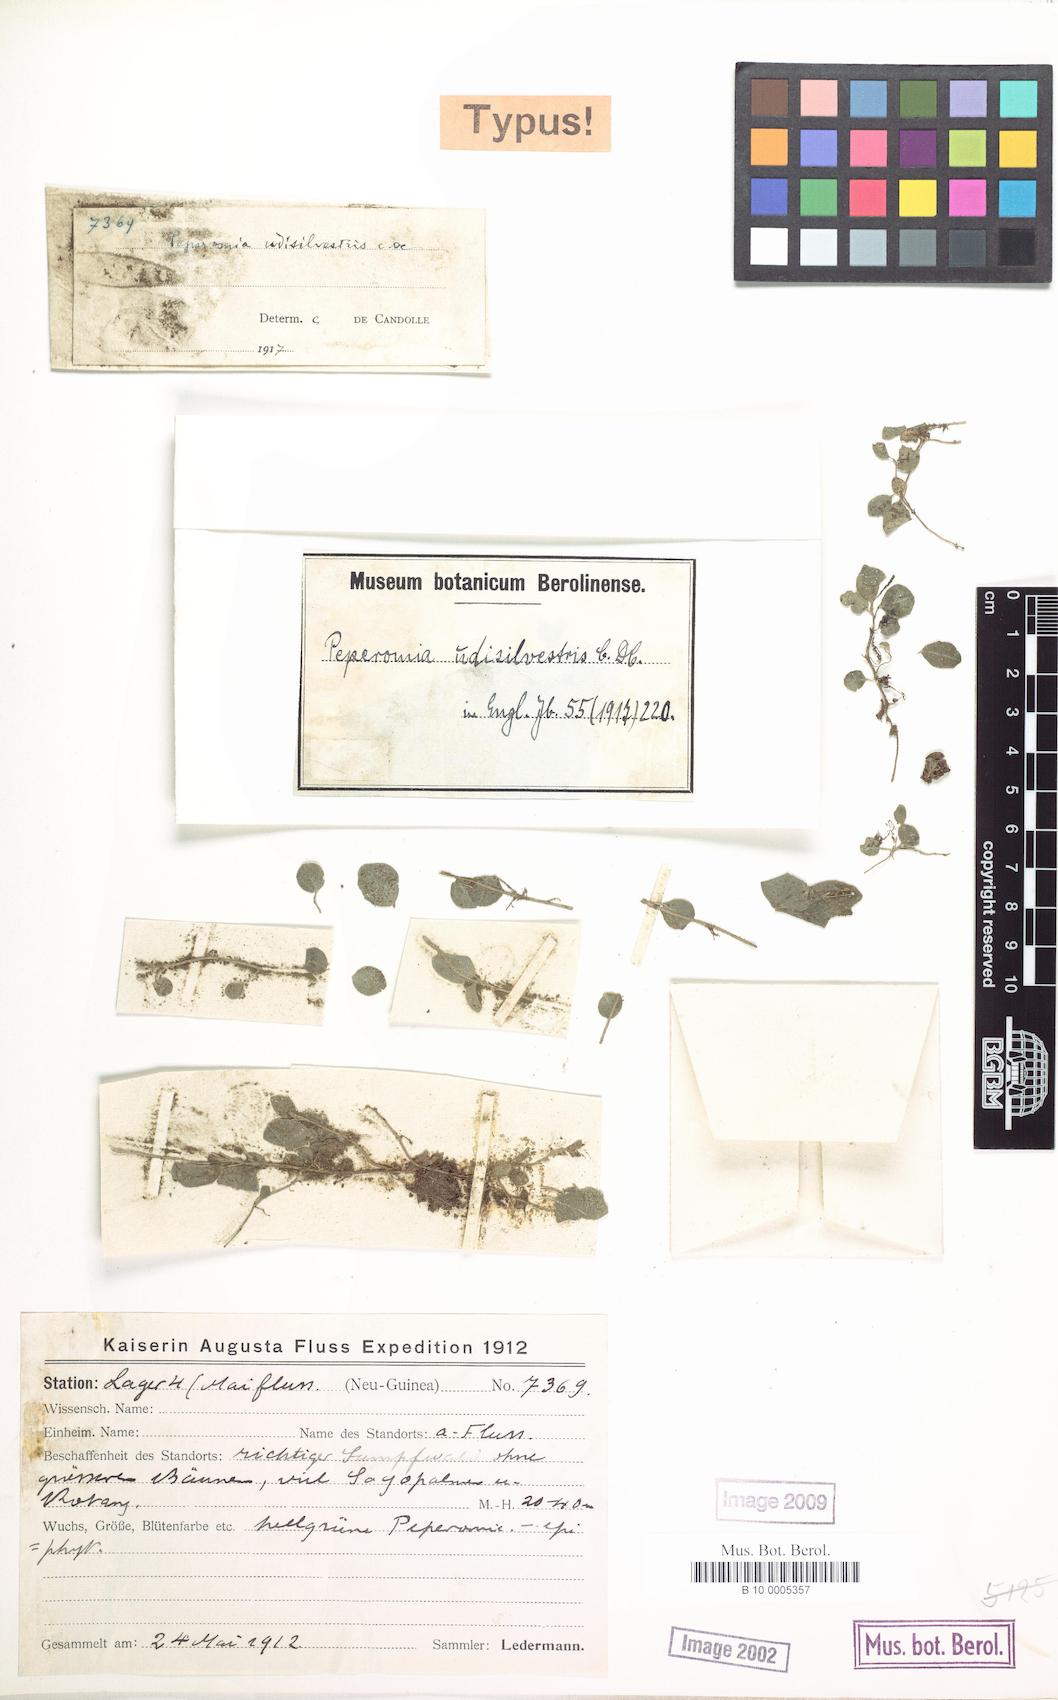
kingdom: Plantae
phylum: Tracheophyta
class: Magnoliopsida
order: Piperales
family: Piperaceae
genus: Peperomia
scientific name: Peperomia udisilvestris
